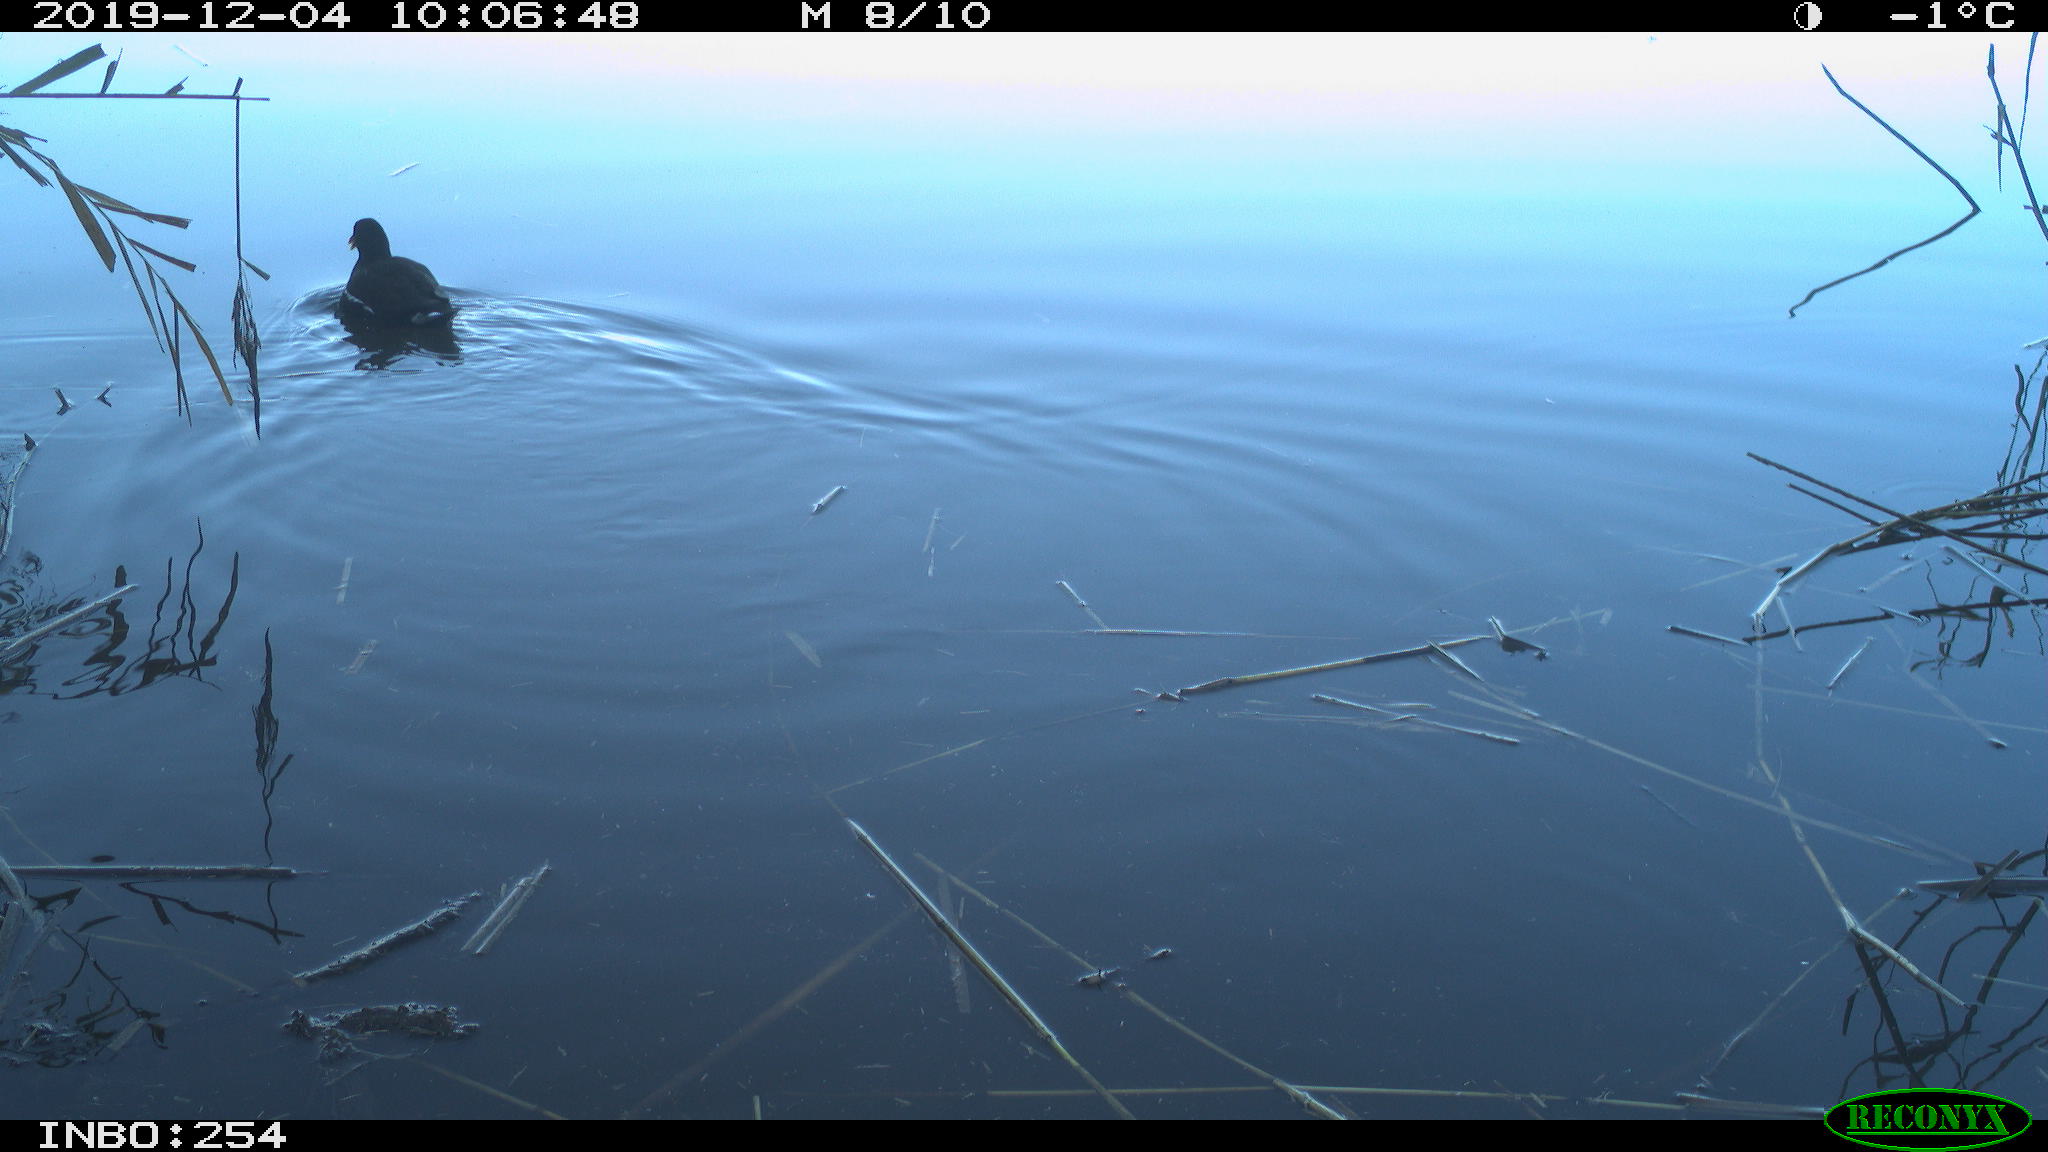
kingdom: Animalia
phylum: Chordata
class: Aves
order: Gruiformes
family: Rallidae
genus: Gallinula
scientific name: Gallinula chloropus
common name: Common moorhen
